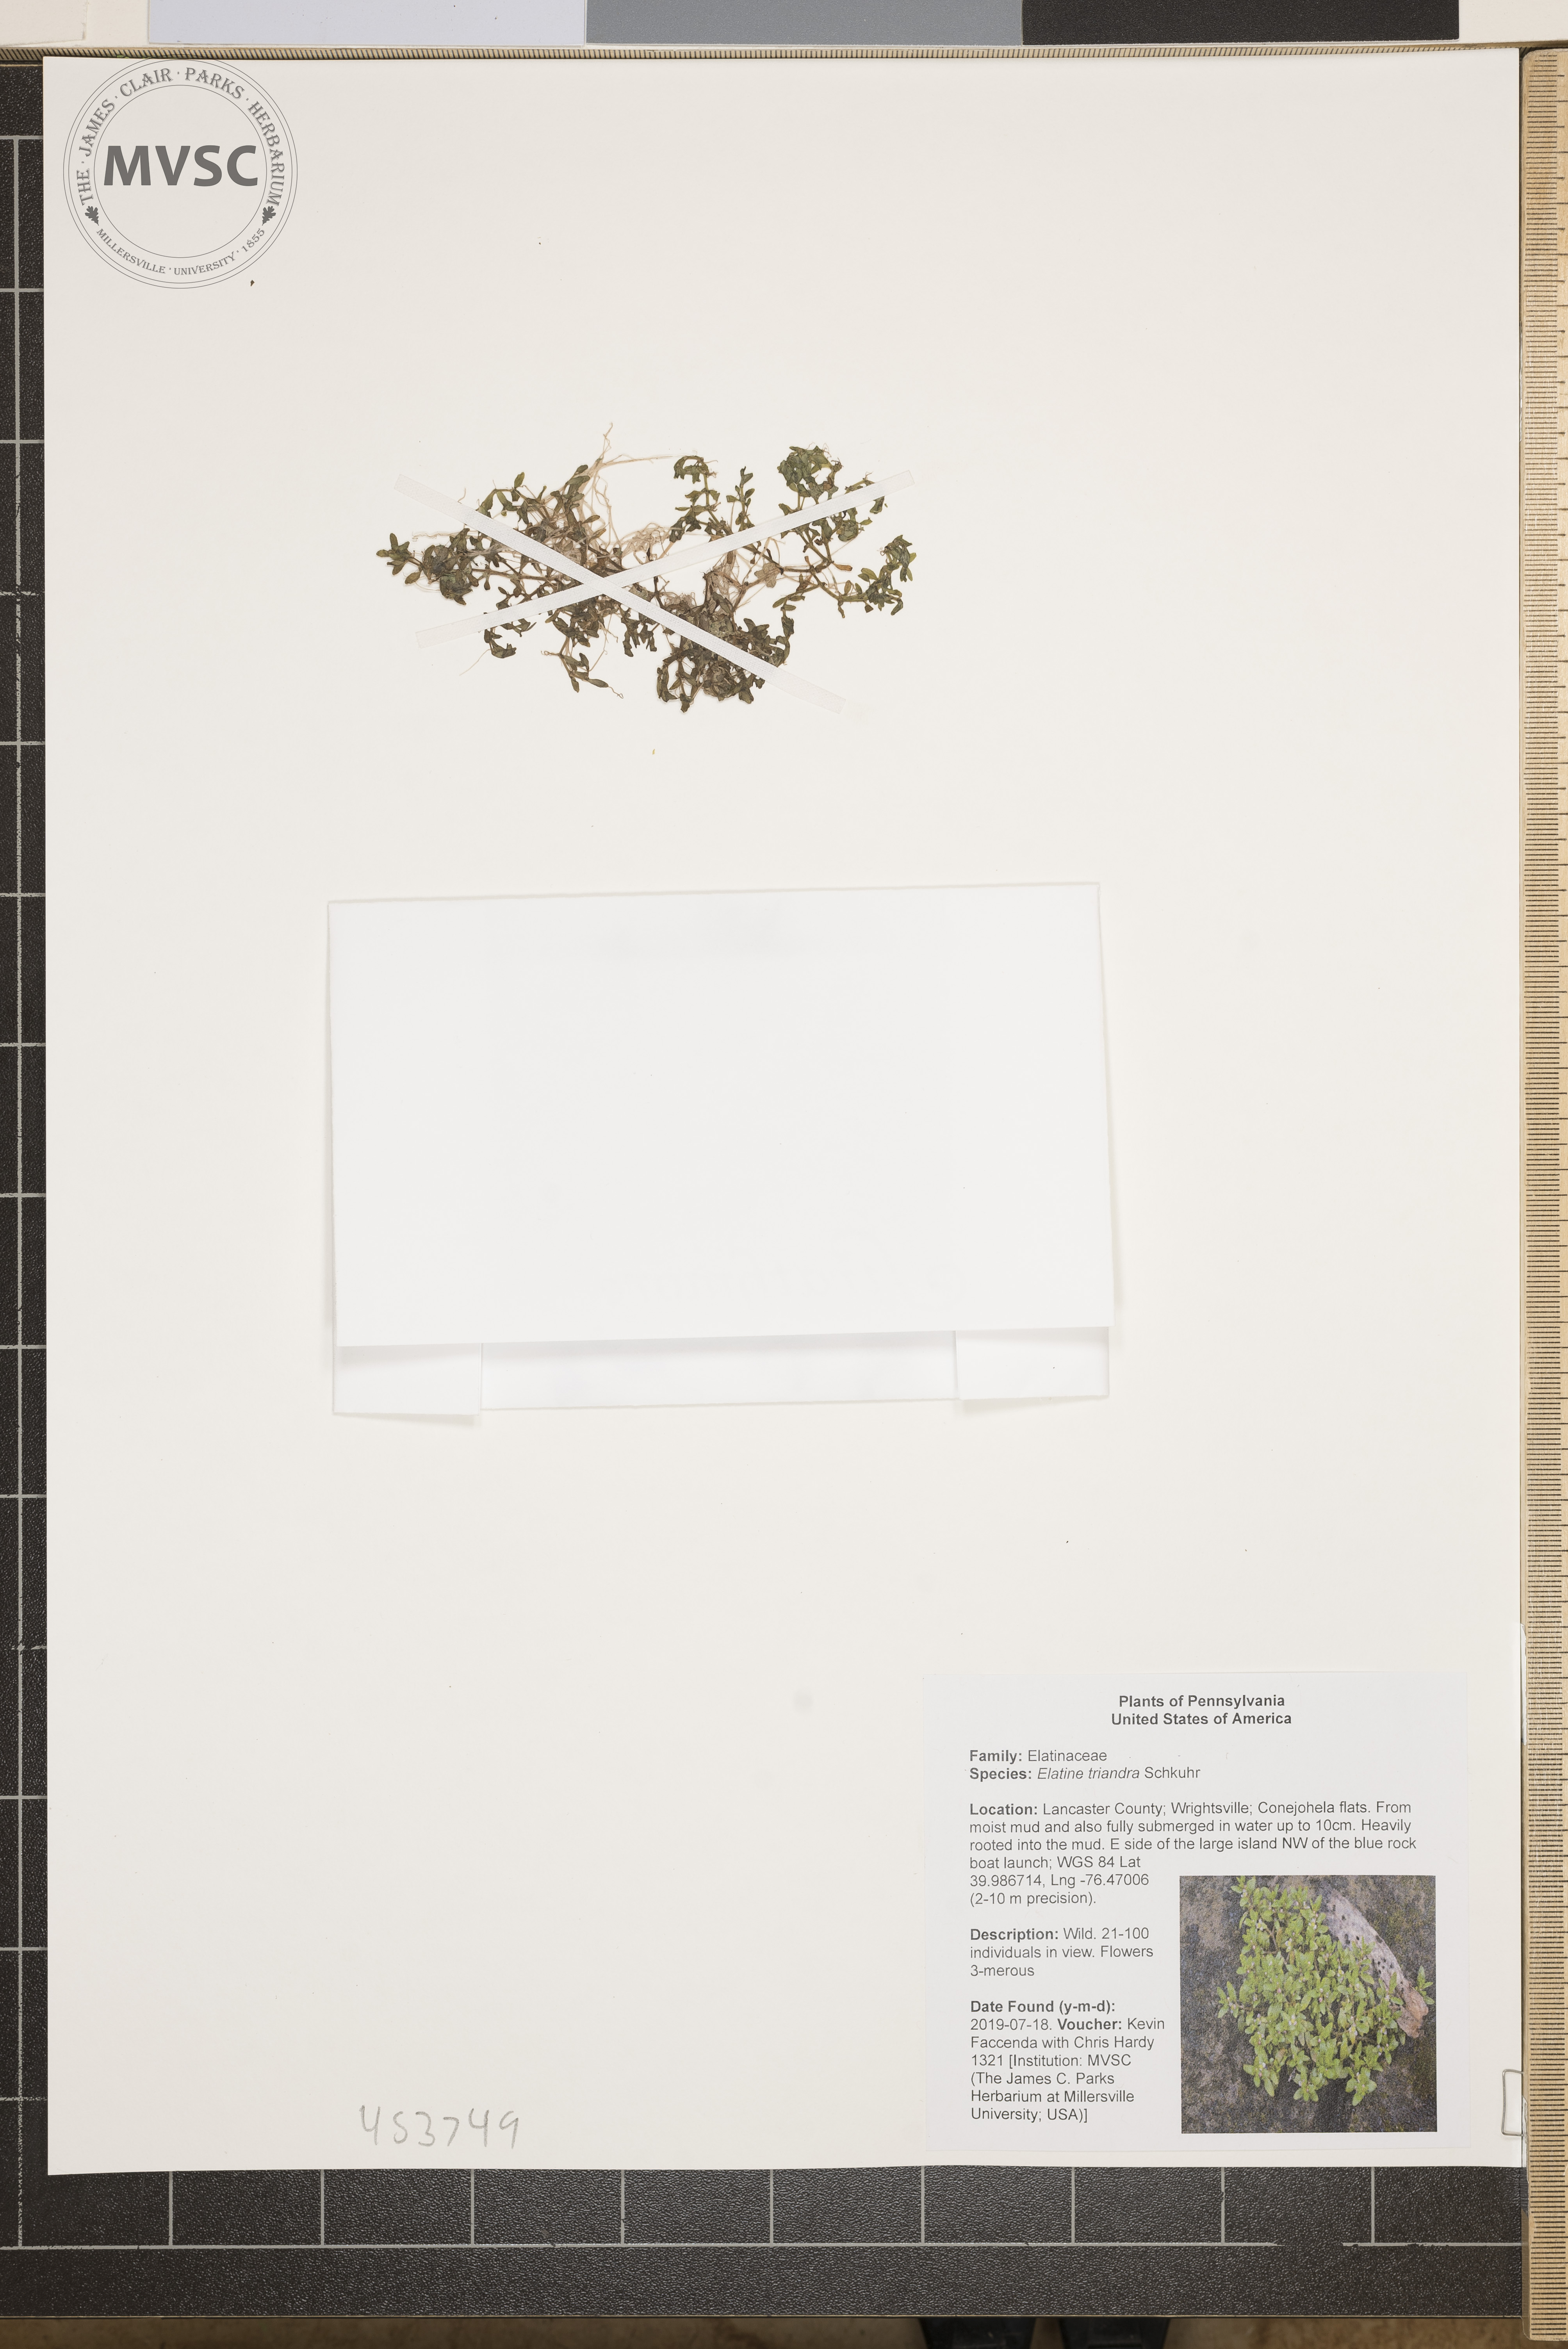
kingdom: Plantae
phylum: Tracheophyta
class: Magnoliopsida
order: Malpighiales
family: Elatinaceae
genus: Elatine
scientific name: Elatine triandra
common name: Three-stamened waterwort
